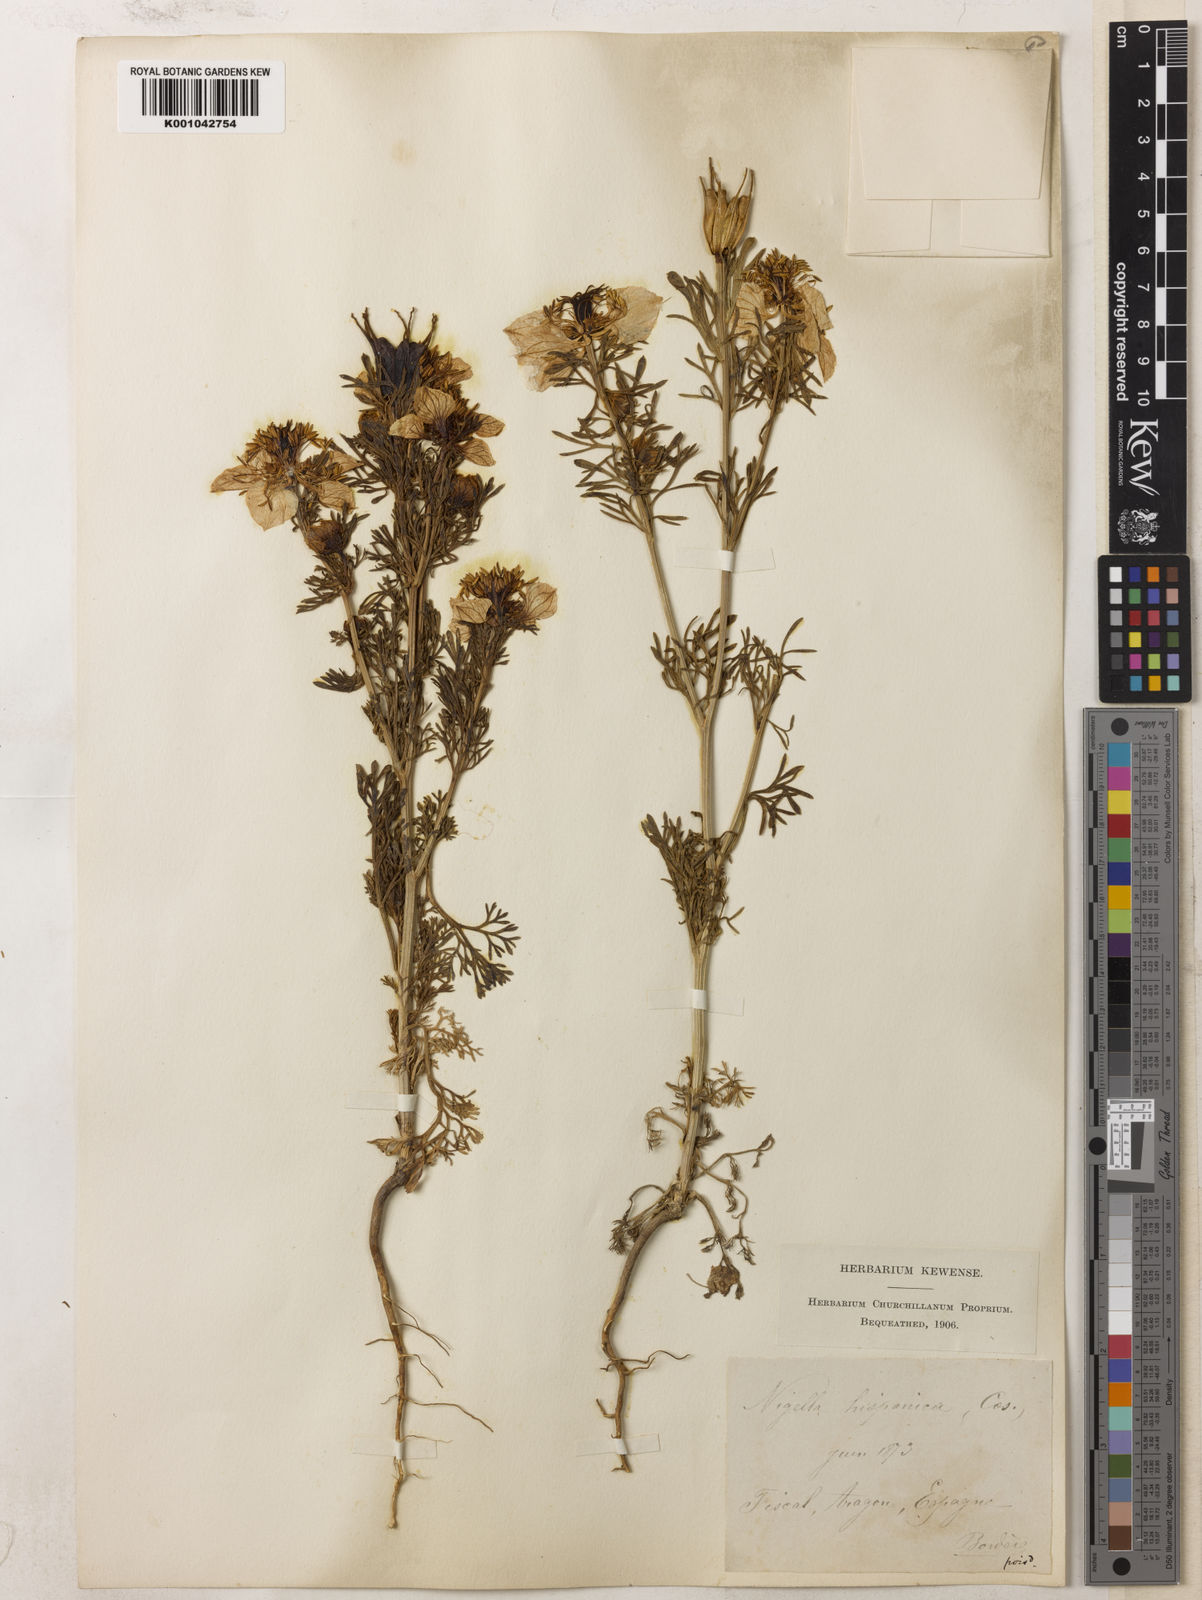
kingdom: Plantae
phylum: Tracheophyta
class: Magnoliopsida
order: Ranunculales
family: Ranunculaceae
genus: Nigella
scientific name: Nigella hispanica
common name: Fennel-flower
